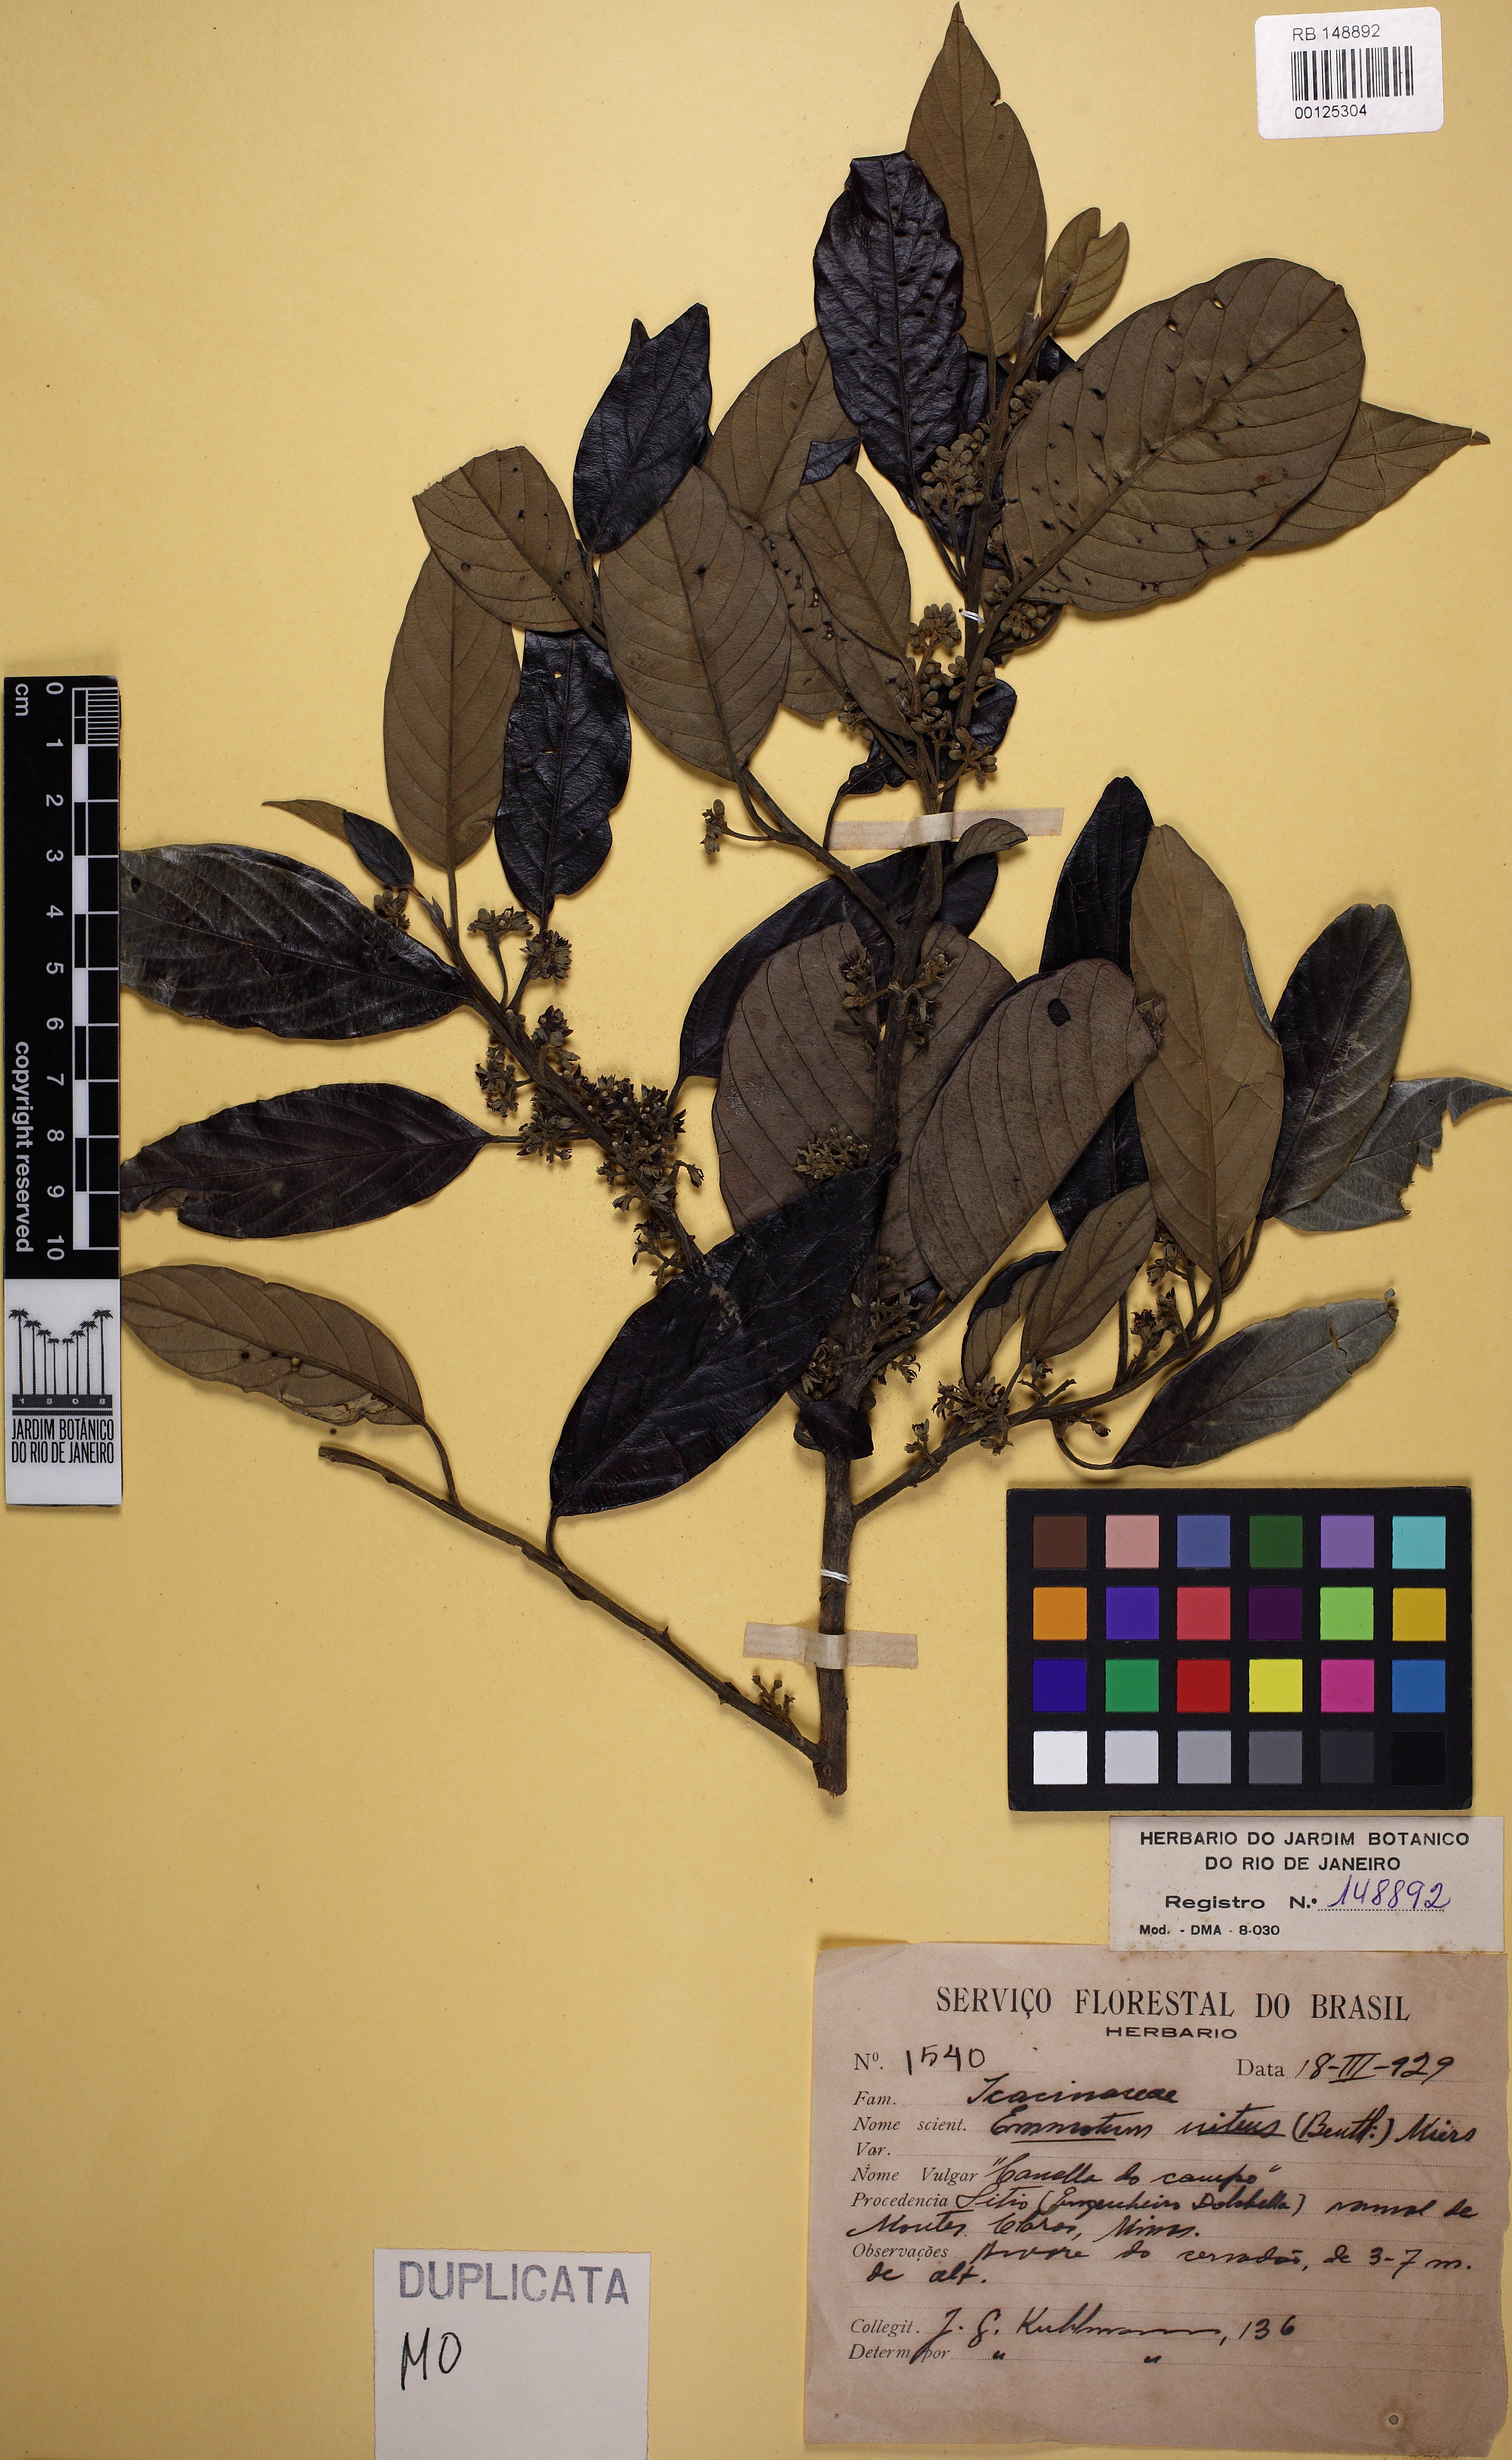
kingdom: Plantae
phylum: Tracheophyta
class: Magnoliopsida
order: Metteniusales
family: Metteniusaceae
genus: Emmotum
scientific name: Emmotum nitens
